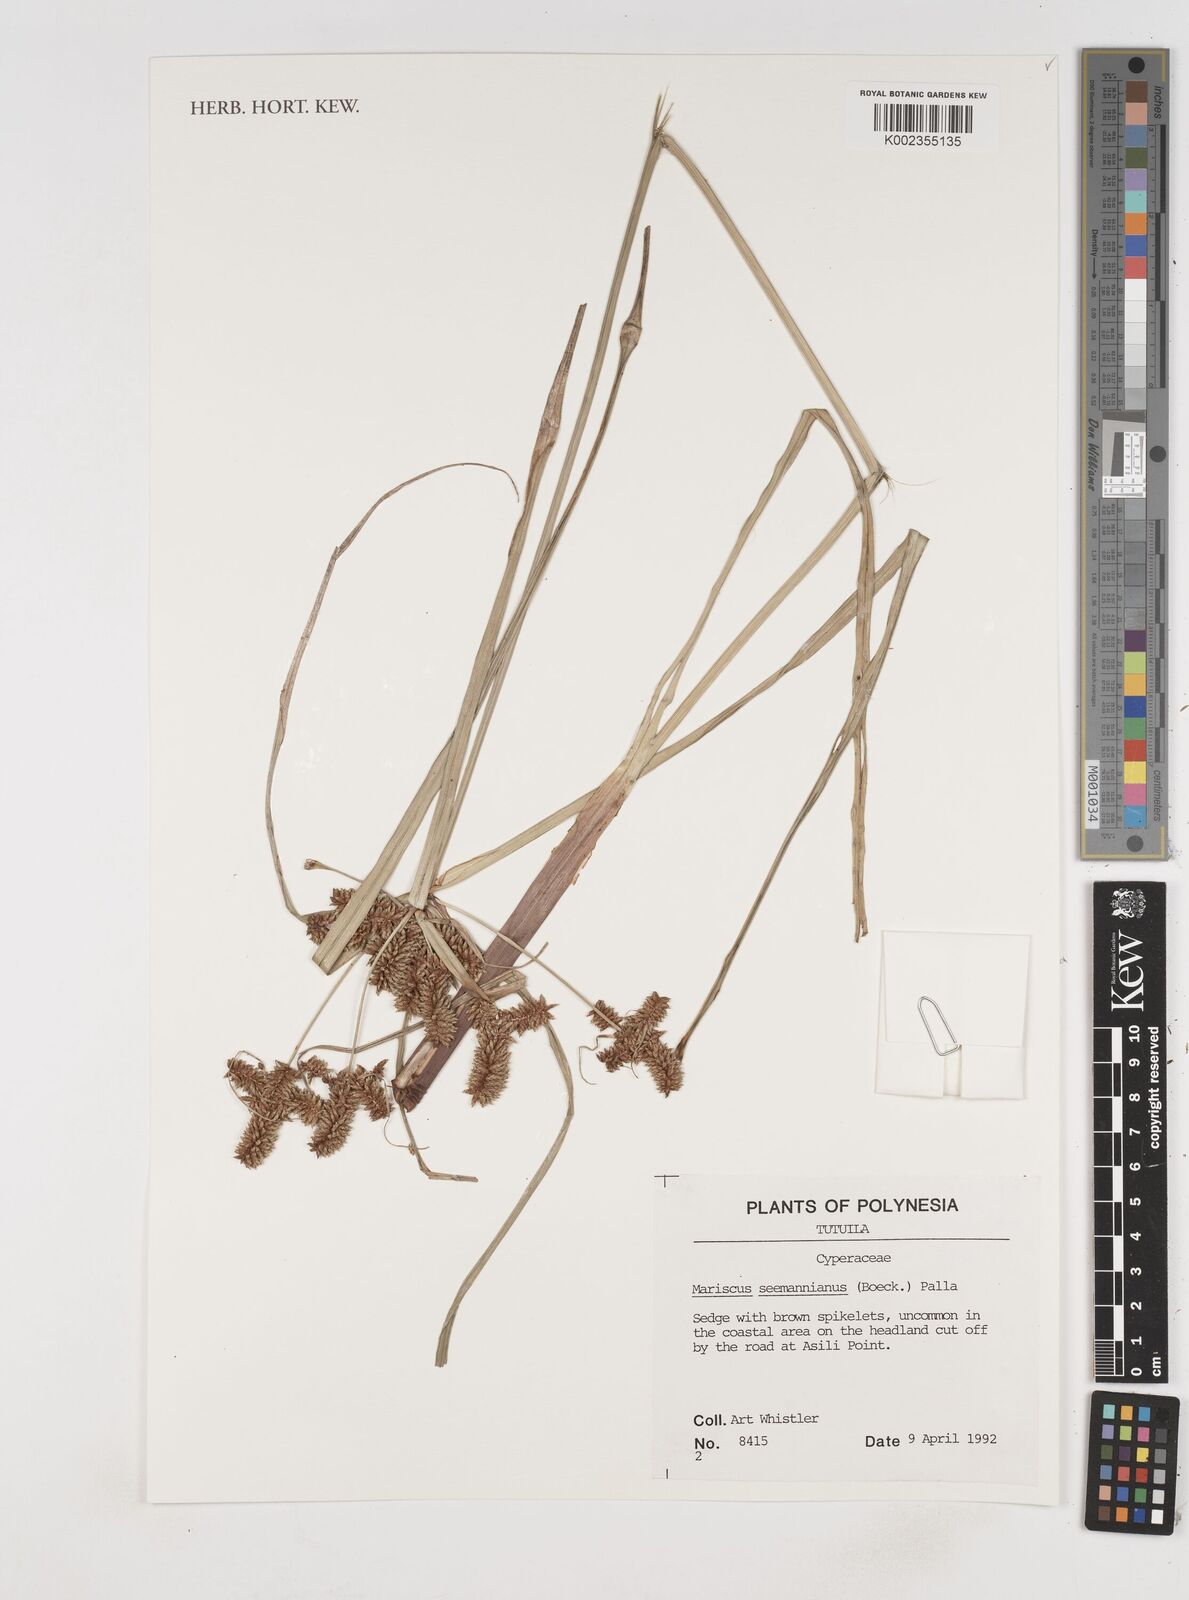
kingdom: Plantae
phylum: Tracheophyta
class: Liliopsida
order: Poales
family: Cyperaceae
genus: Cyperus
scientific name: Cyperus seemannianus
